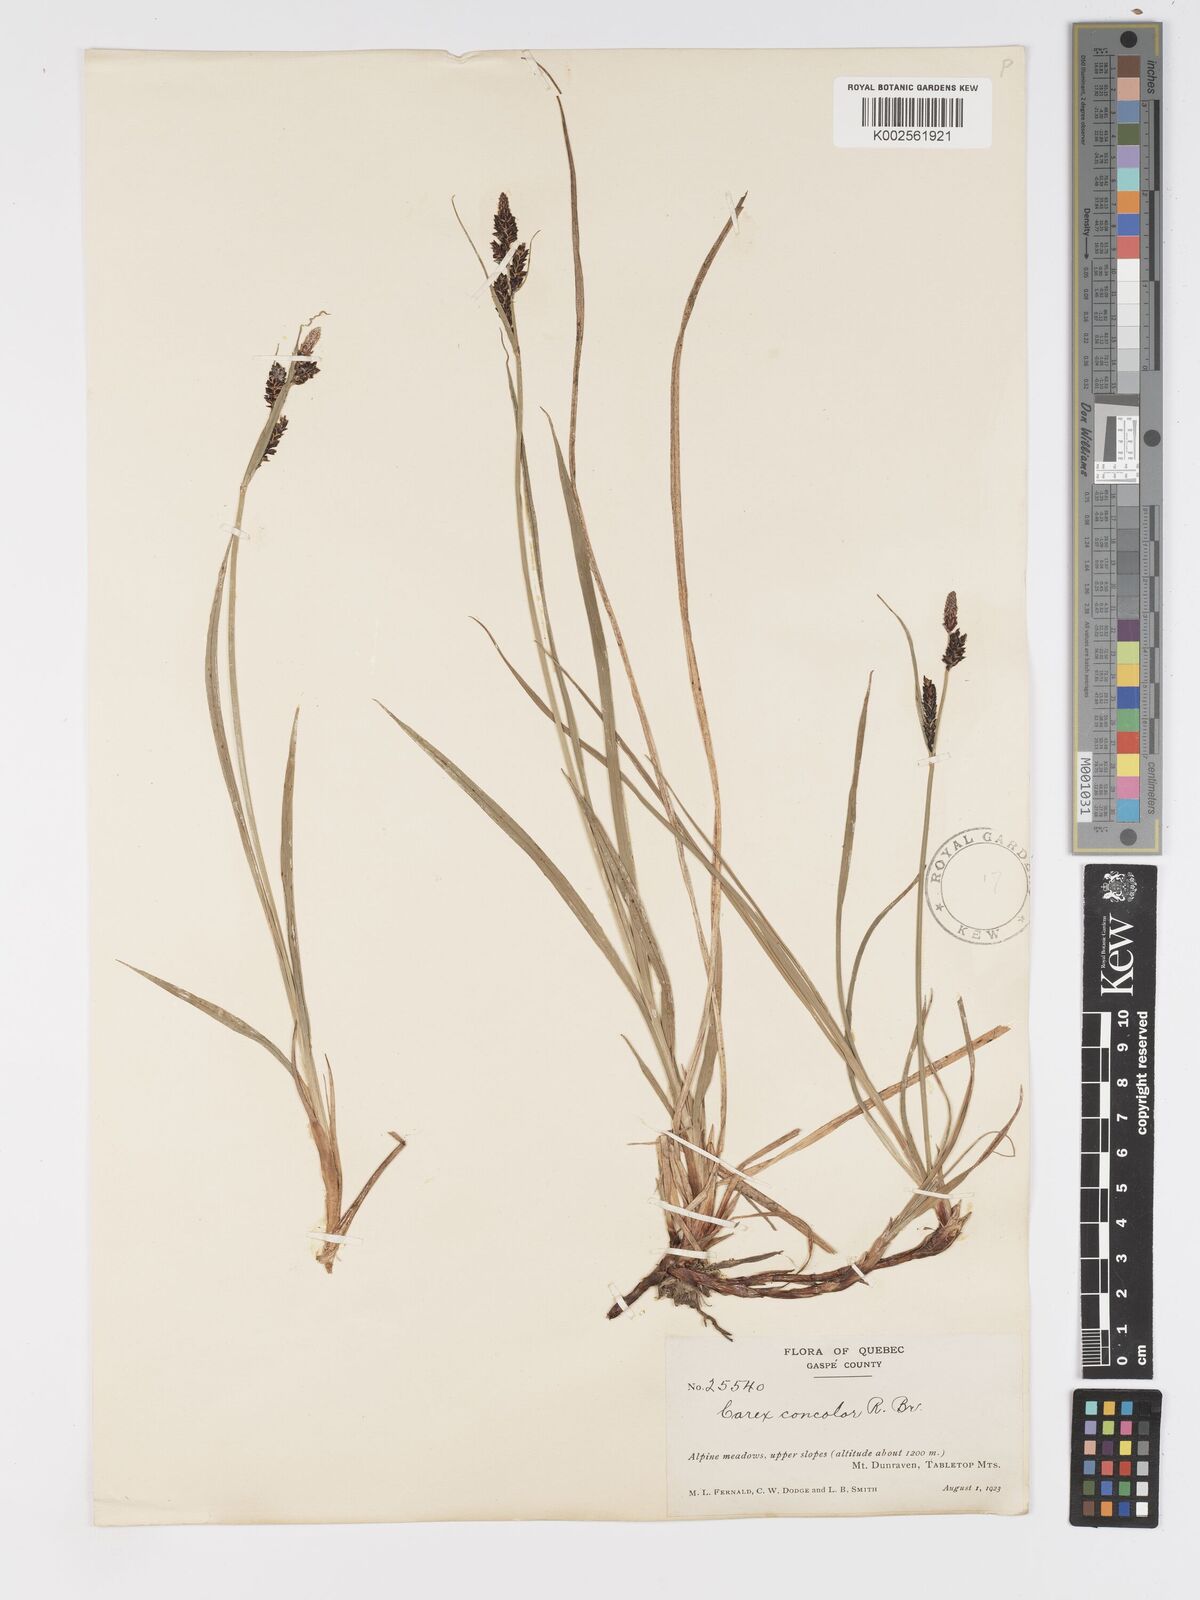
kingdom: Plantae
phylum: Tracheophyta
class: Liliopsida
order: Poales
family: Cyperaceae
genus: Carex
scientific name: Carex bigelowii
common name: Stiff sedge
